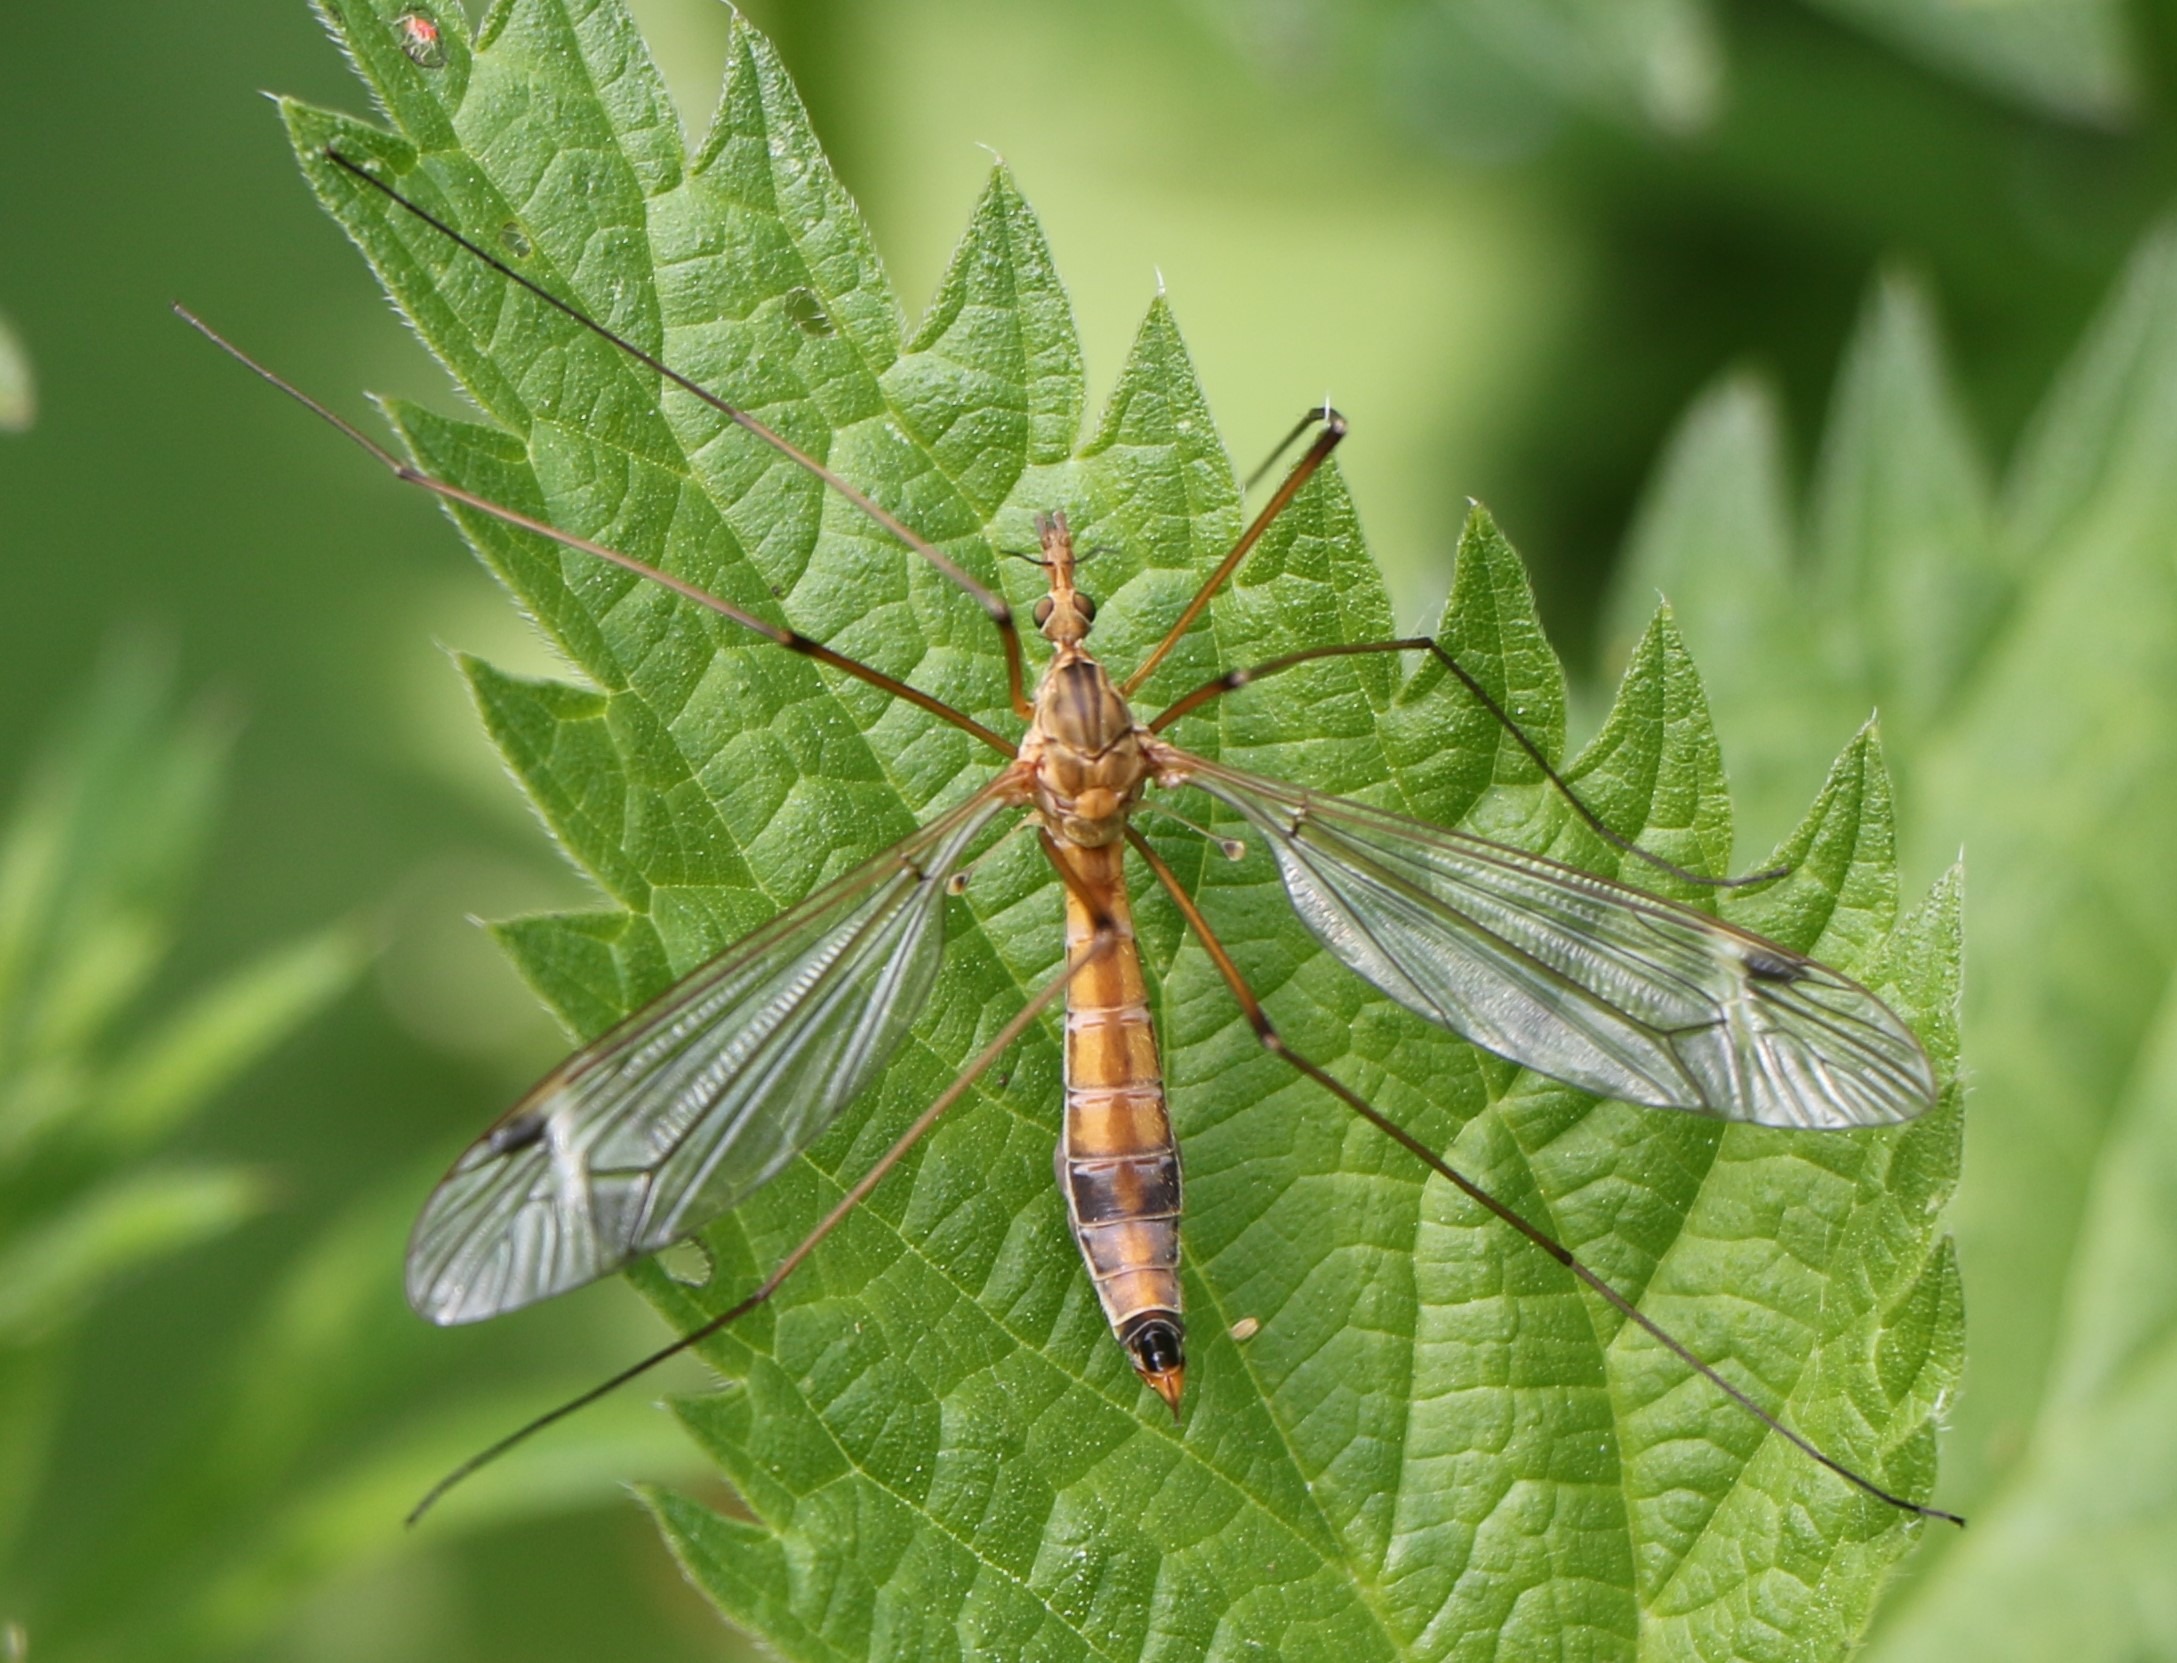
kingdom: Animalia
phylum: Arthropoda
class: Insecta
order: Diptera
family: Tipulidae
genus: Tipula
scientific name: Tipula lunata
